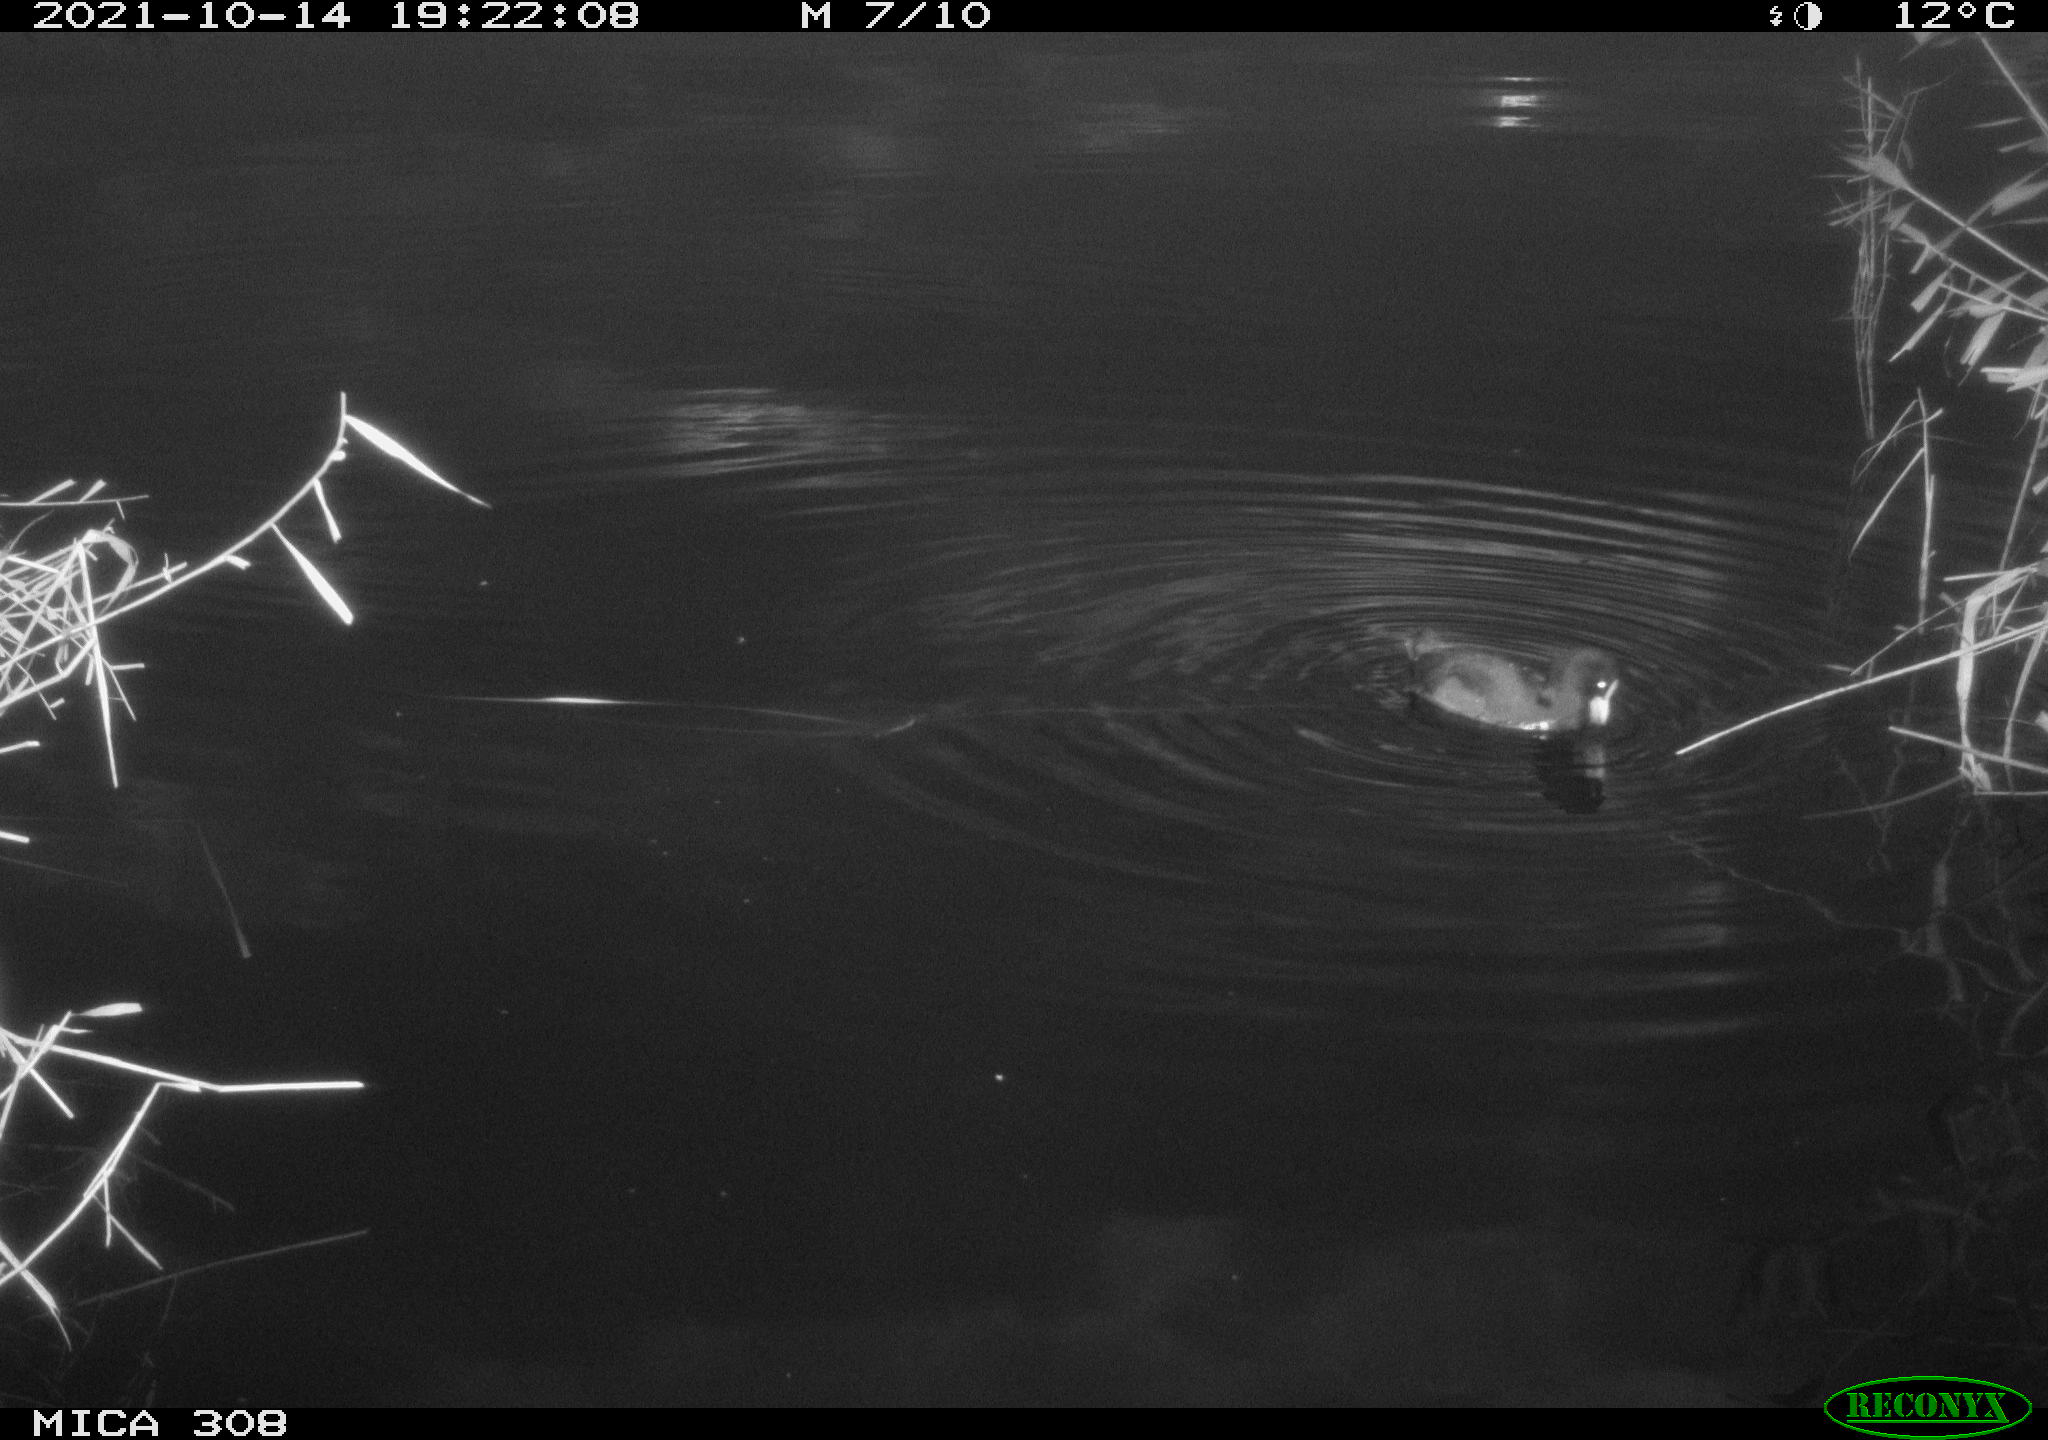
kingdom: Animalia
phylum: Chordata
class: Aves
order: Anseriformes
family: Anatidae
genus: Spatula
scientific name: Spatula clypeata
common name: Northern shoveler
